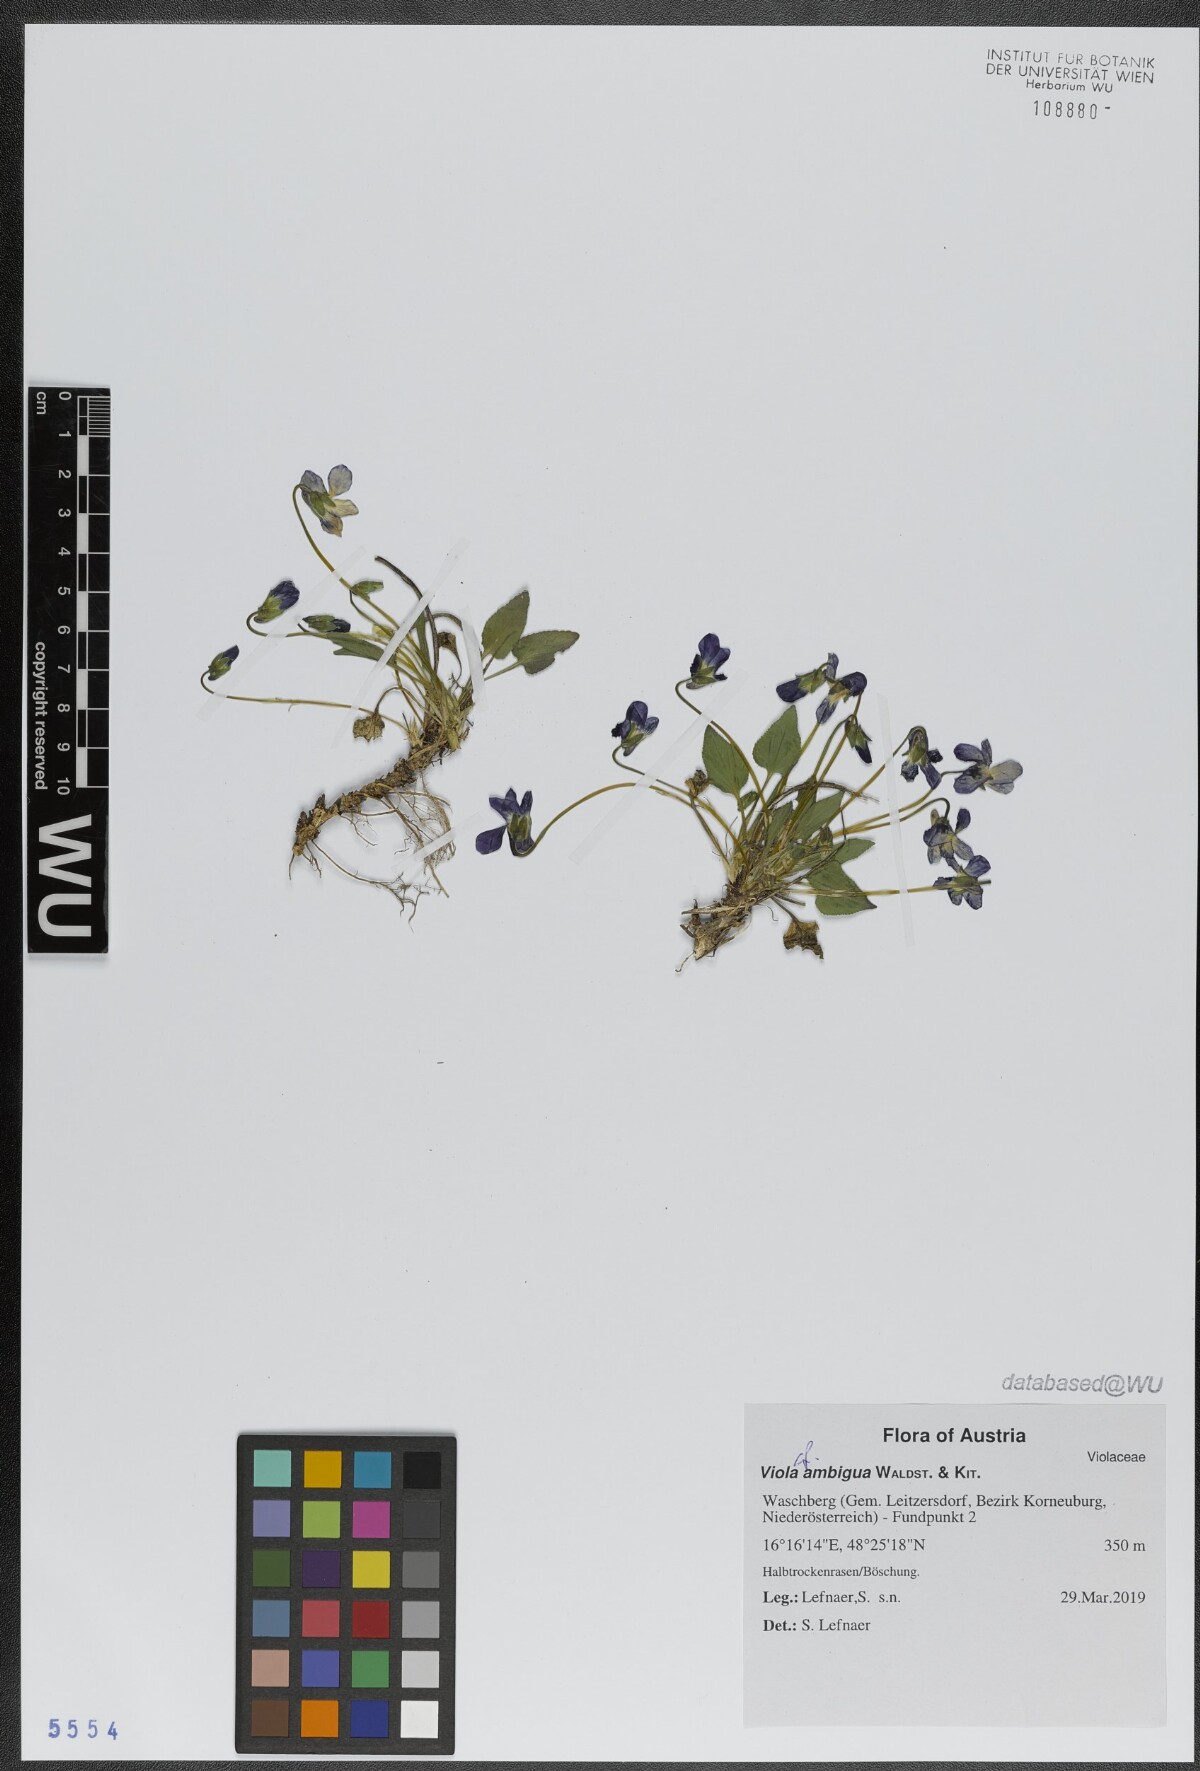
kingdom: Plantae
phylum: Tracheophyta
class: Magnoliopsida
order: Malpighiales
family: Violaceae
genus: Viola
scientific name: Viola ambigua
